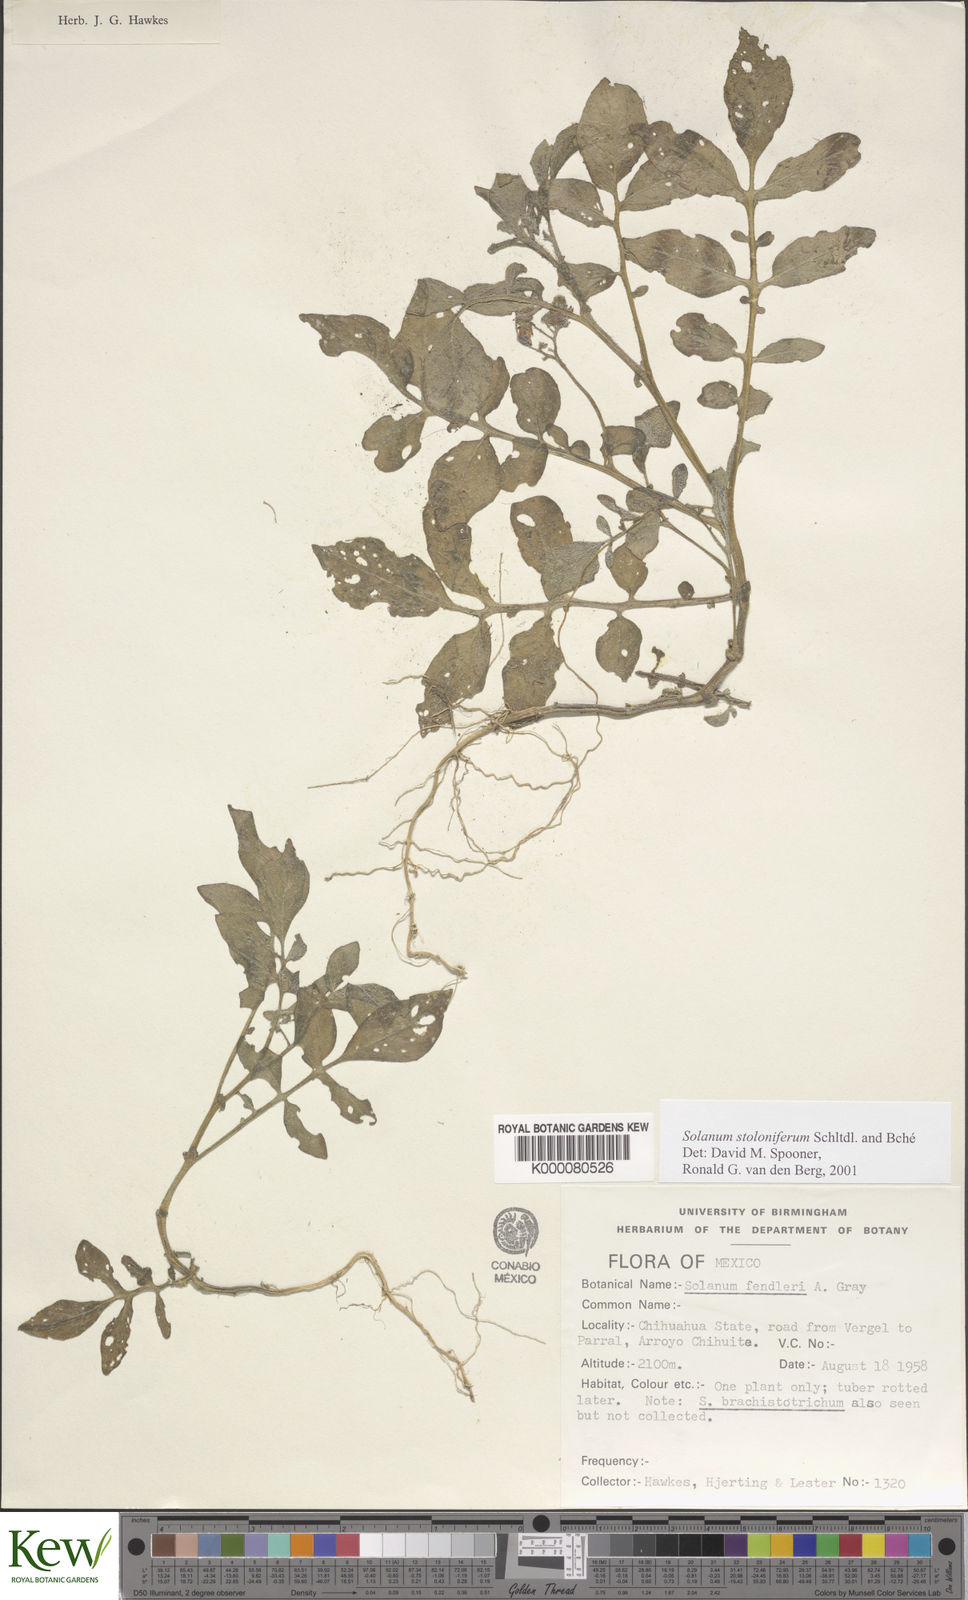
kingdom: Plantae
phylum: Tracheophyta
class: Magnoliopsida
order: Solanales
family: Solanaceae
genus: Solanum
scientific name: Solanum stoloniferum
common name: Fendler's nighshade
